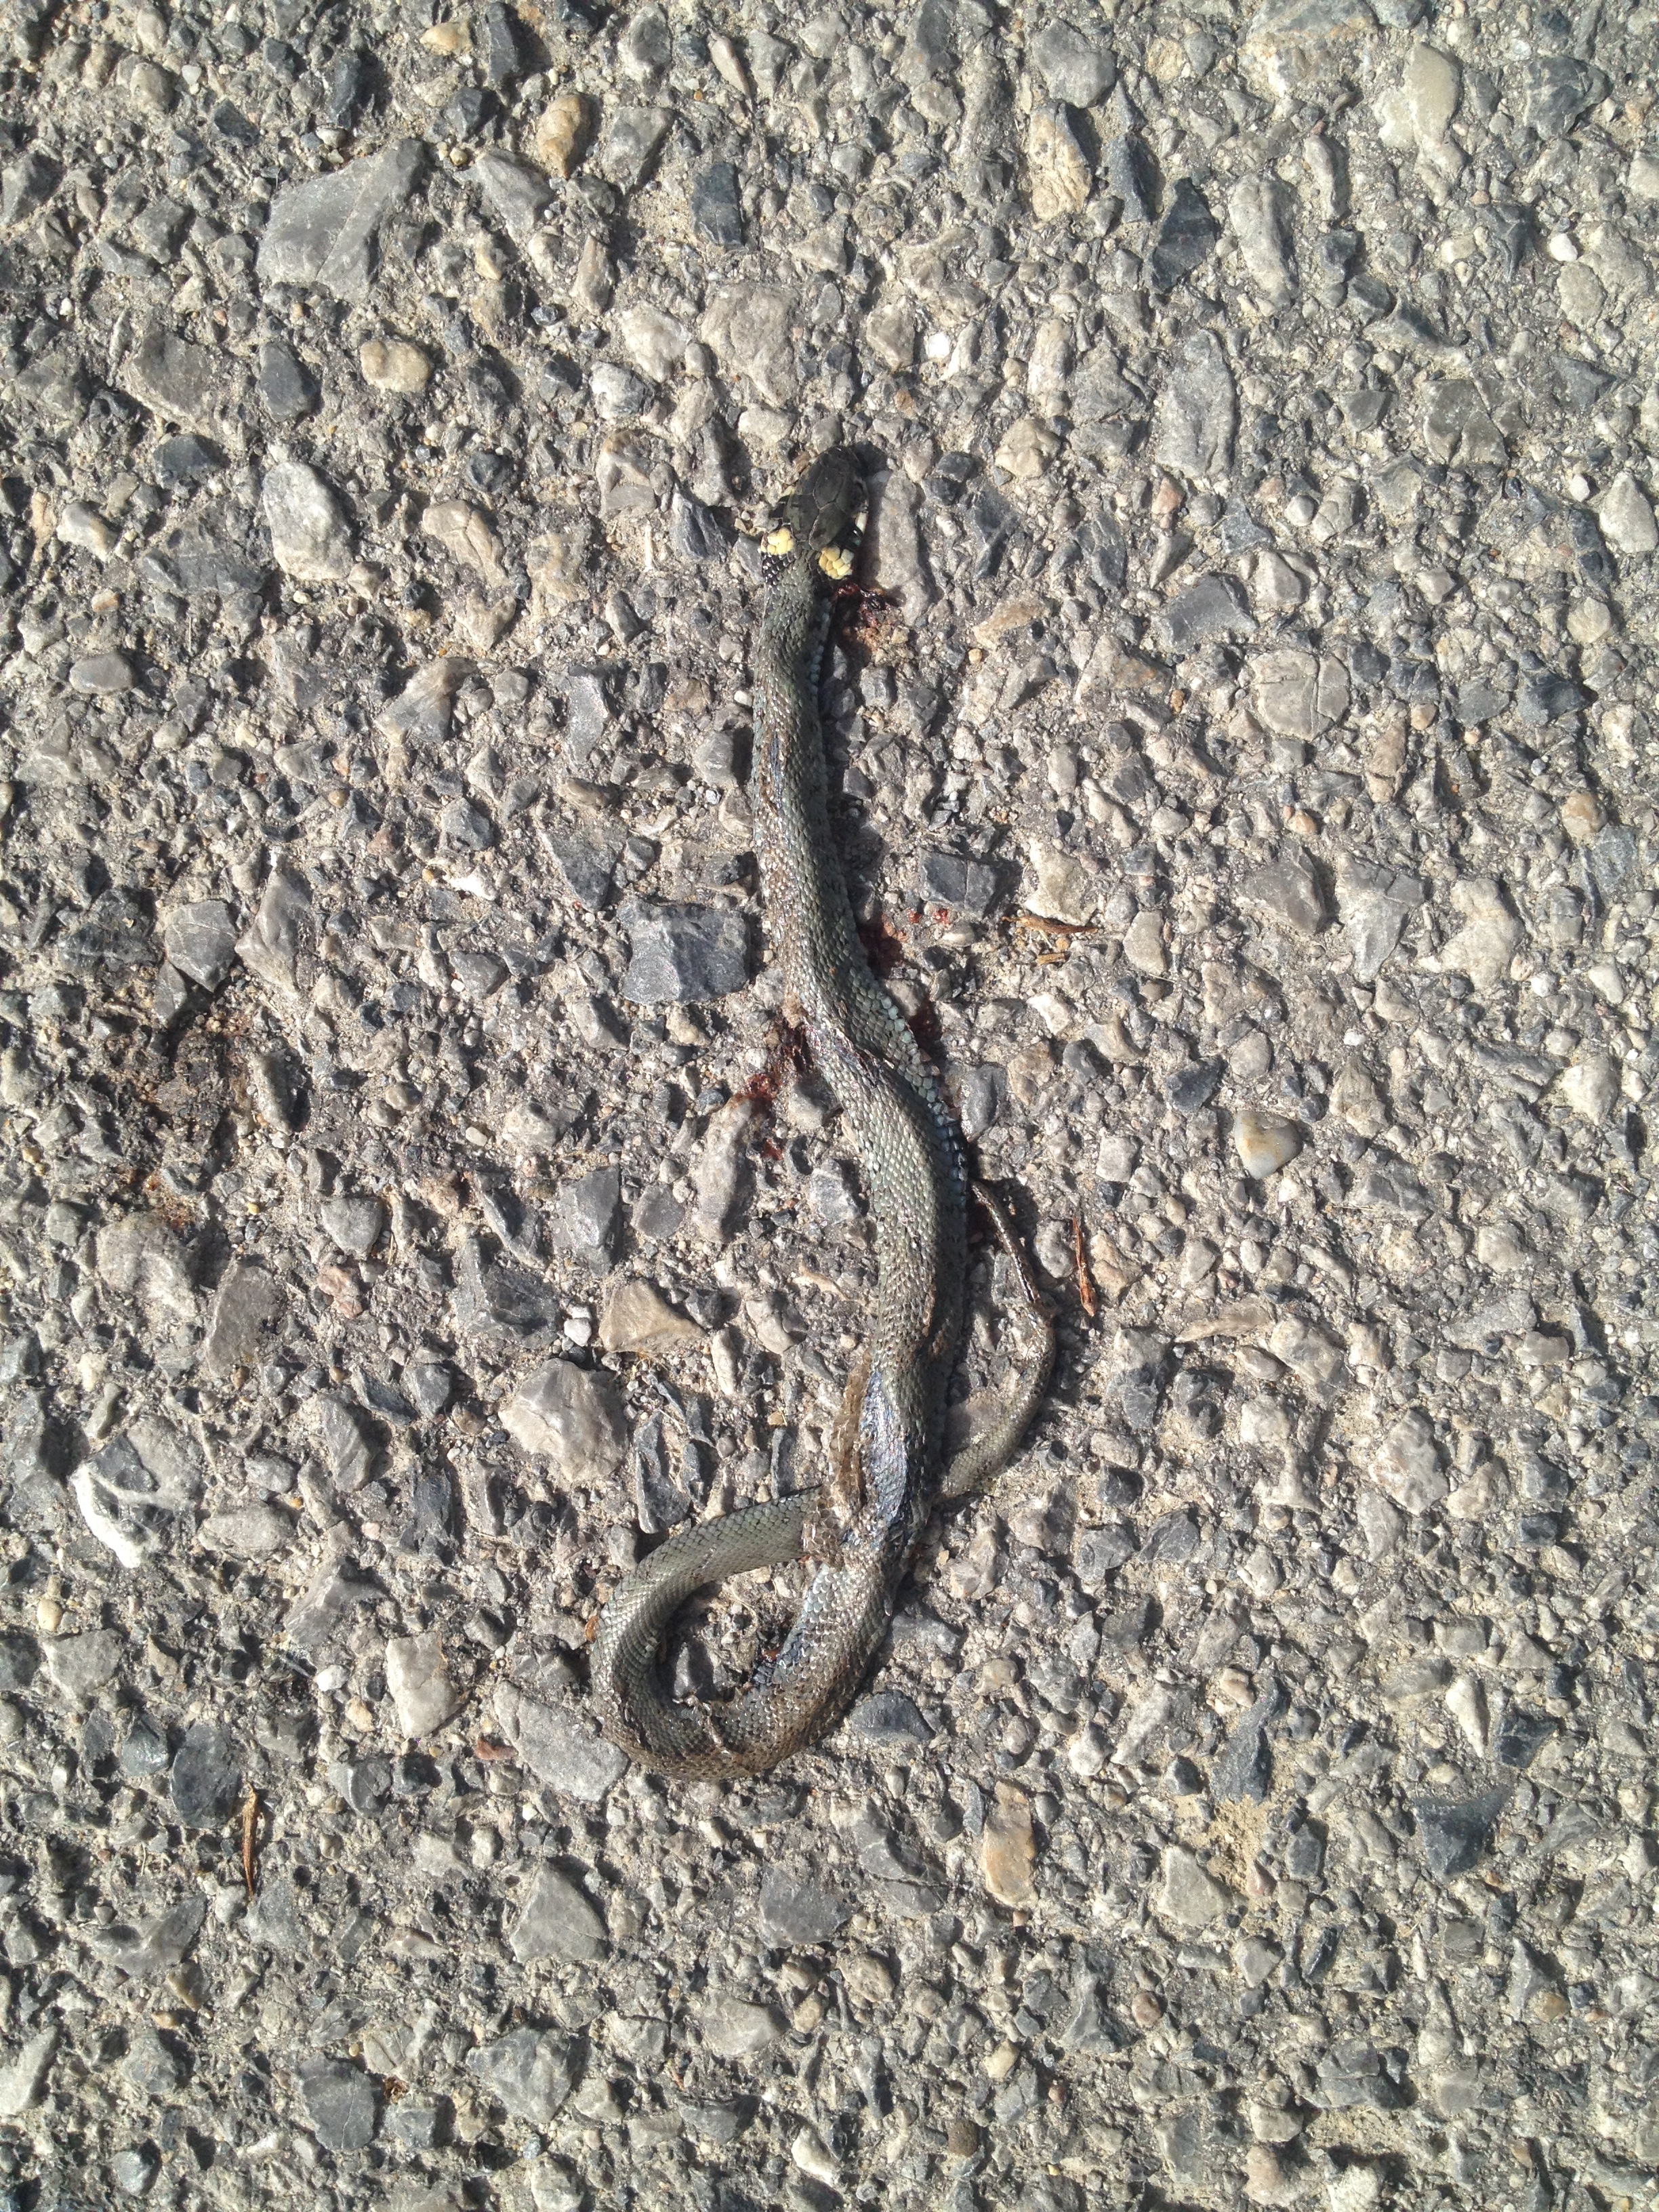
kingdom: Animalia
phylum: Chordata
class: Squamata
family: Colubridae
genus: Natrix
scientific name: Natrix natrix
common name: Grass snake
